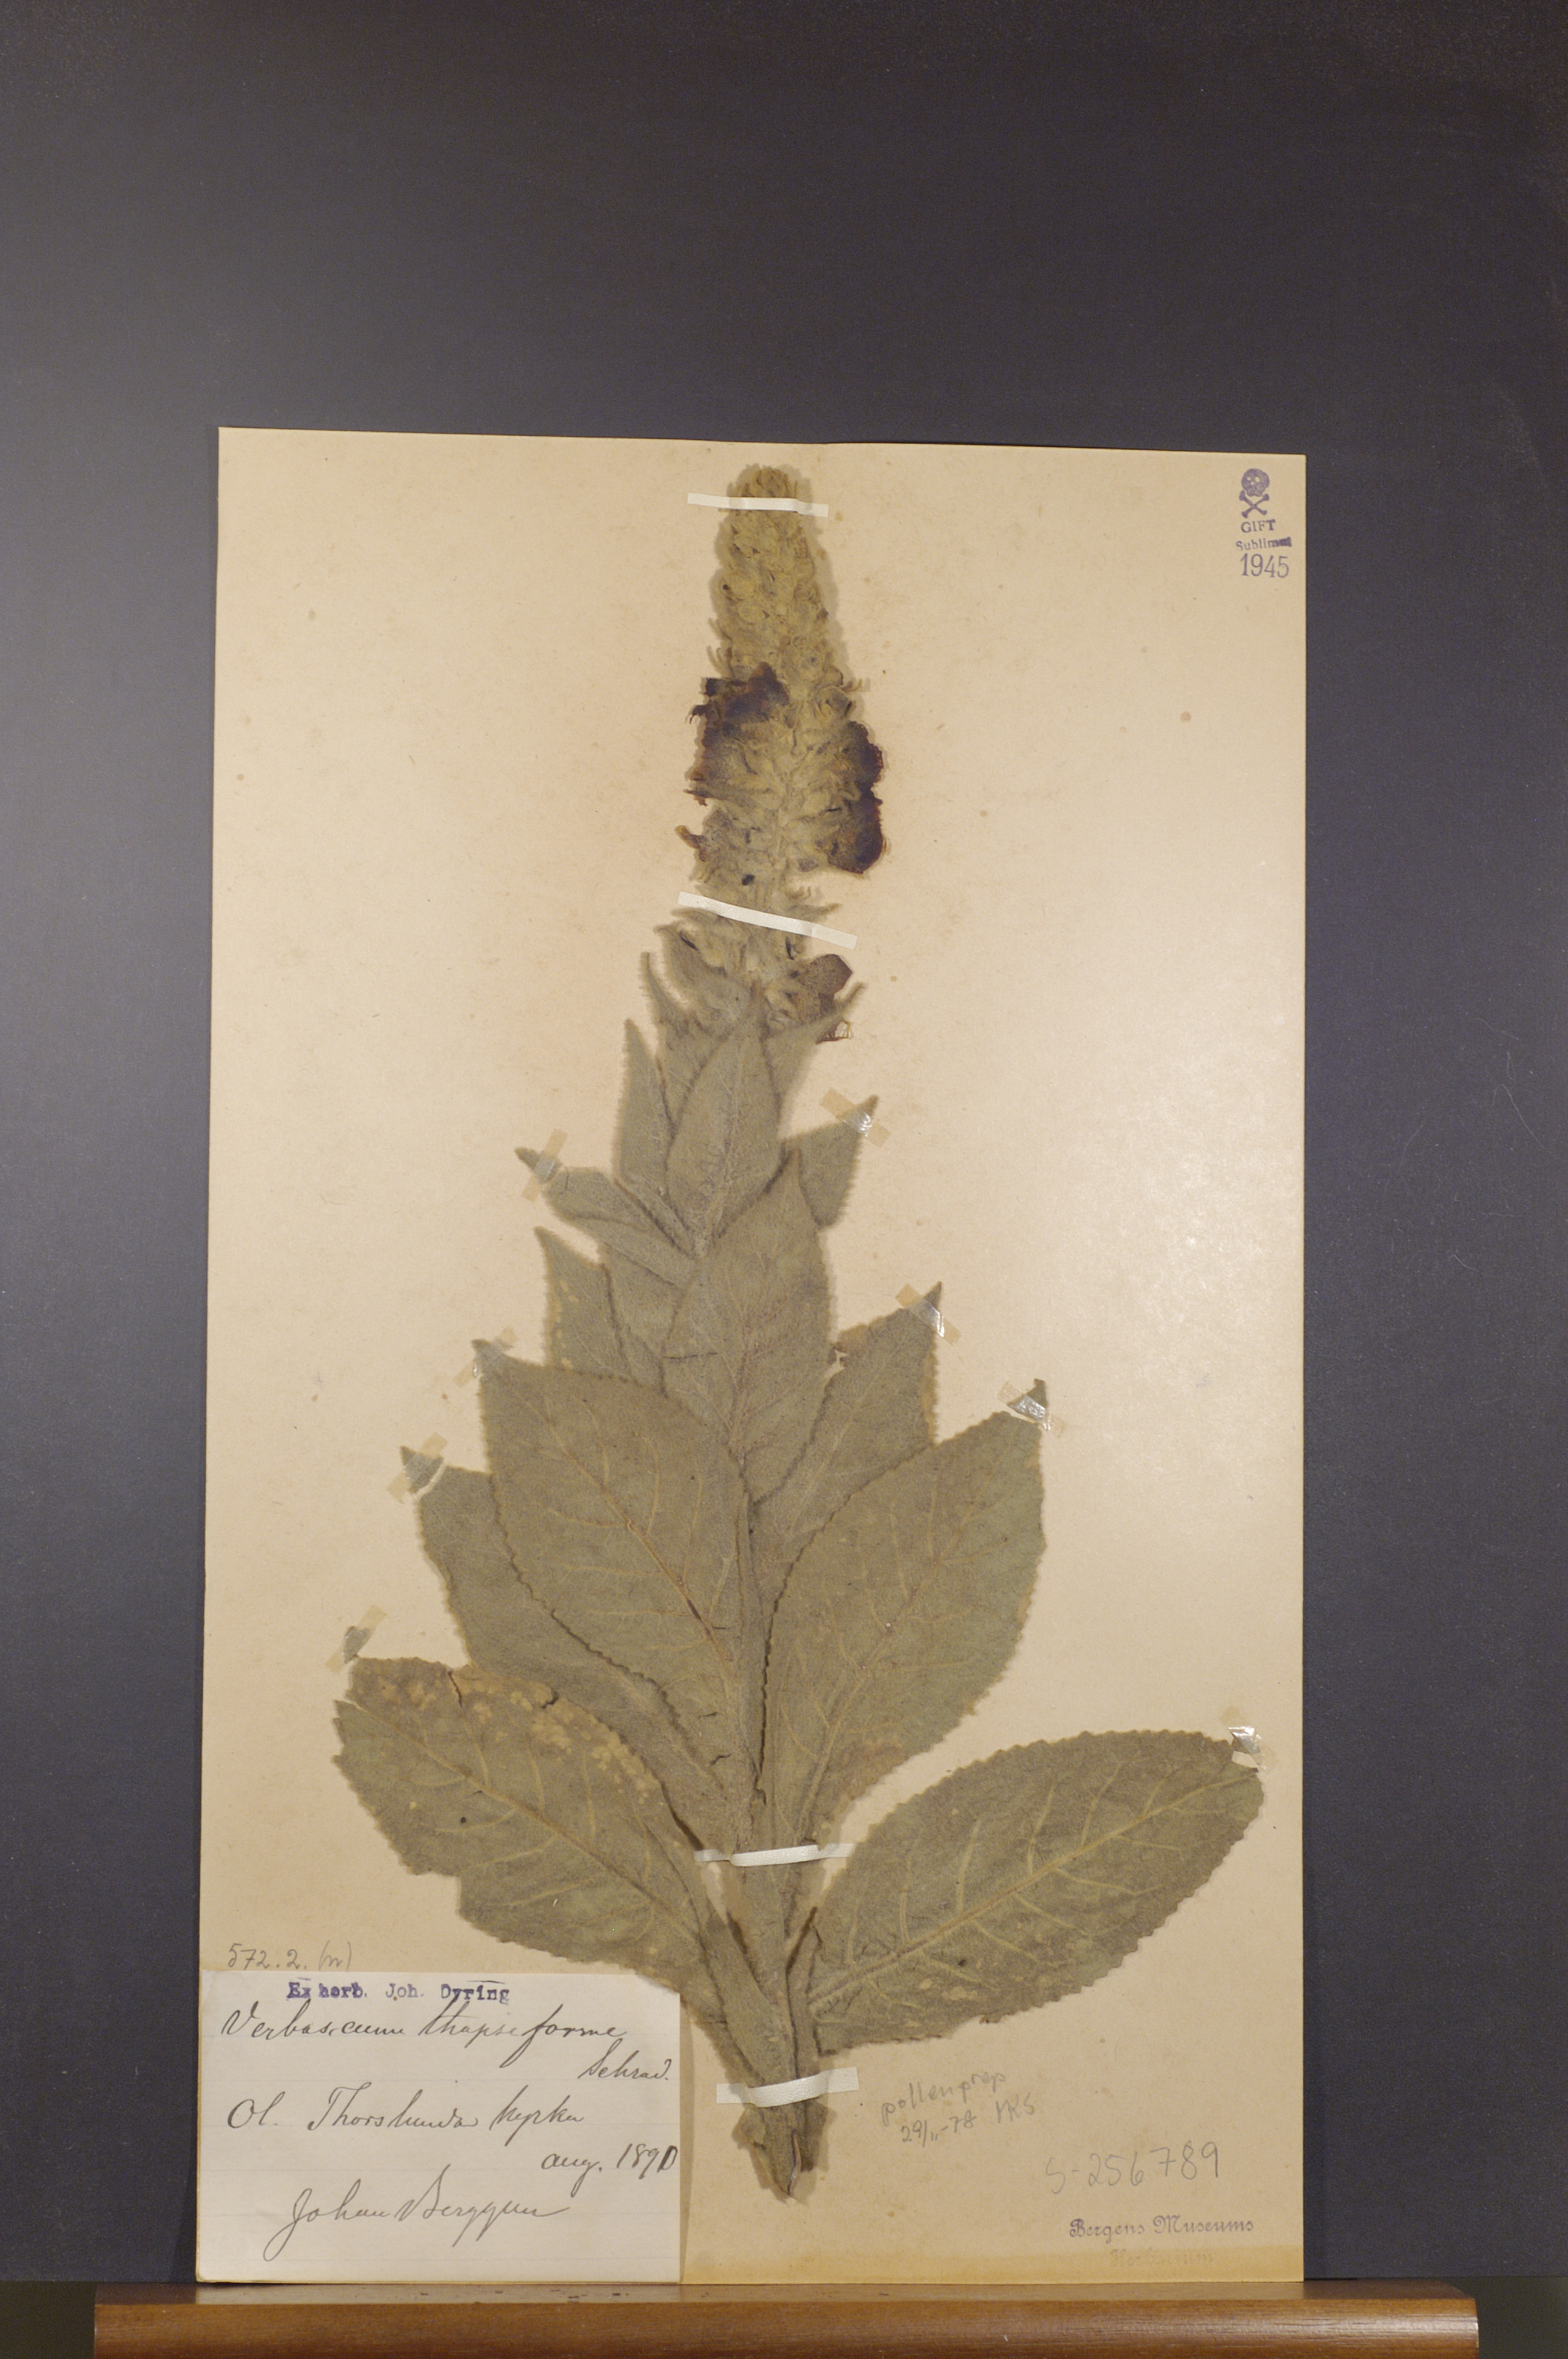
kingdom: Plantae
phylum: Tracheophyta
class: Magnoliopsida
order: Lamiales
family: Scrophulariaceae
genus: Verbascum
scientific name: Verbascum densiflorum
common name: Dense-flowered mullein
